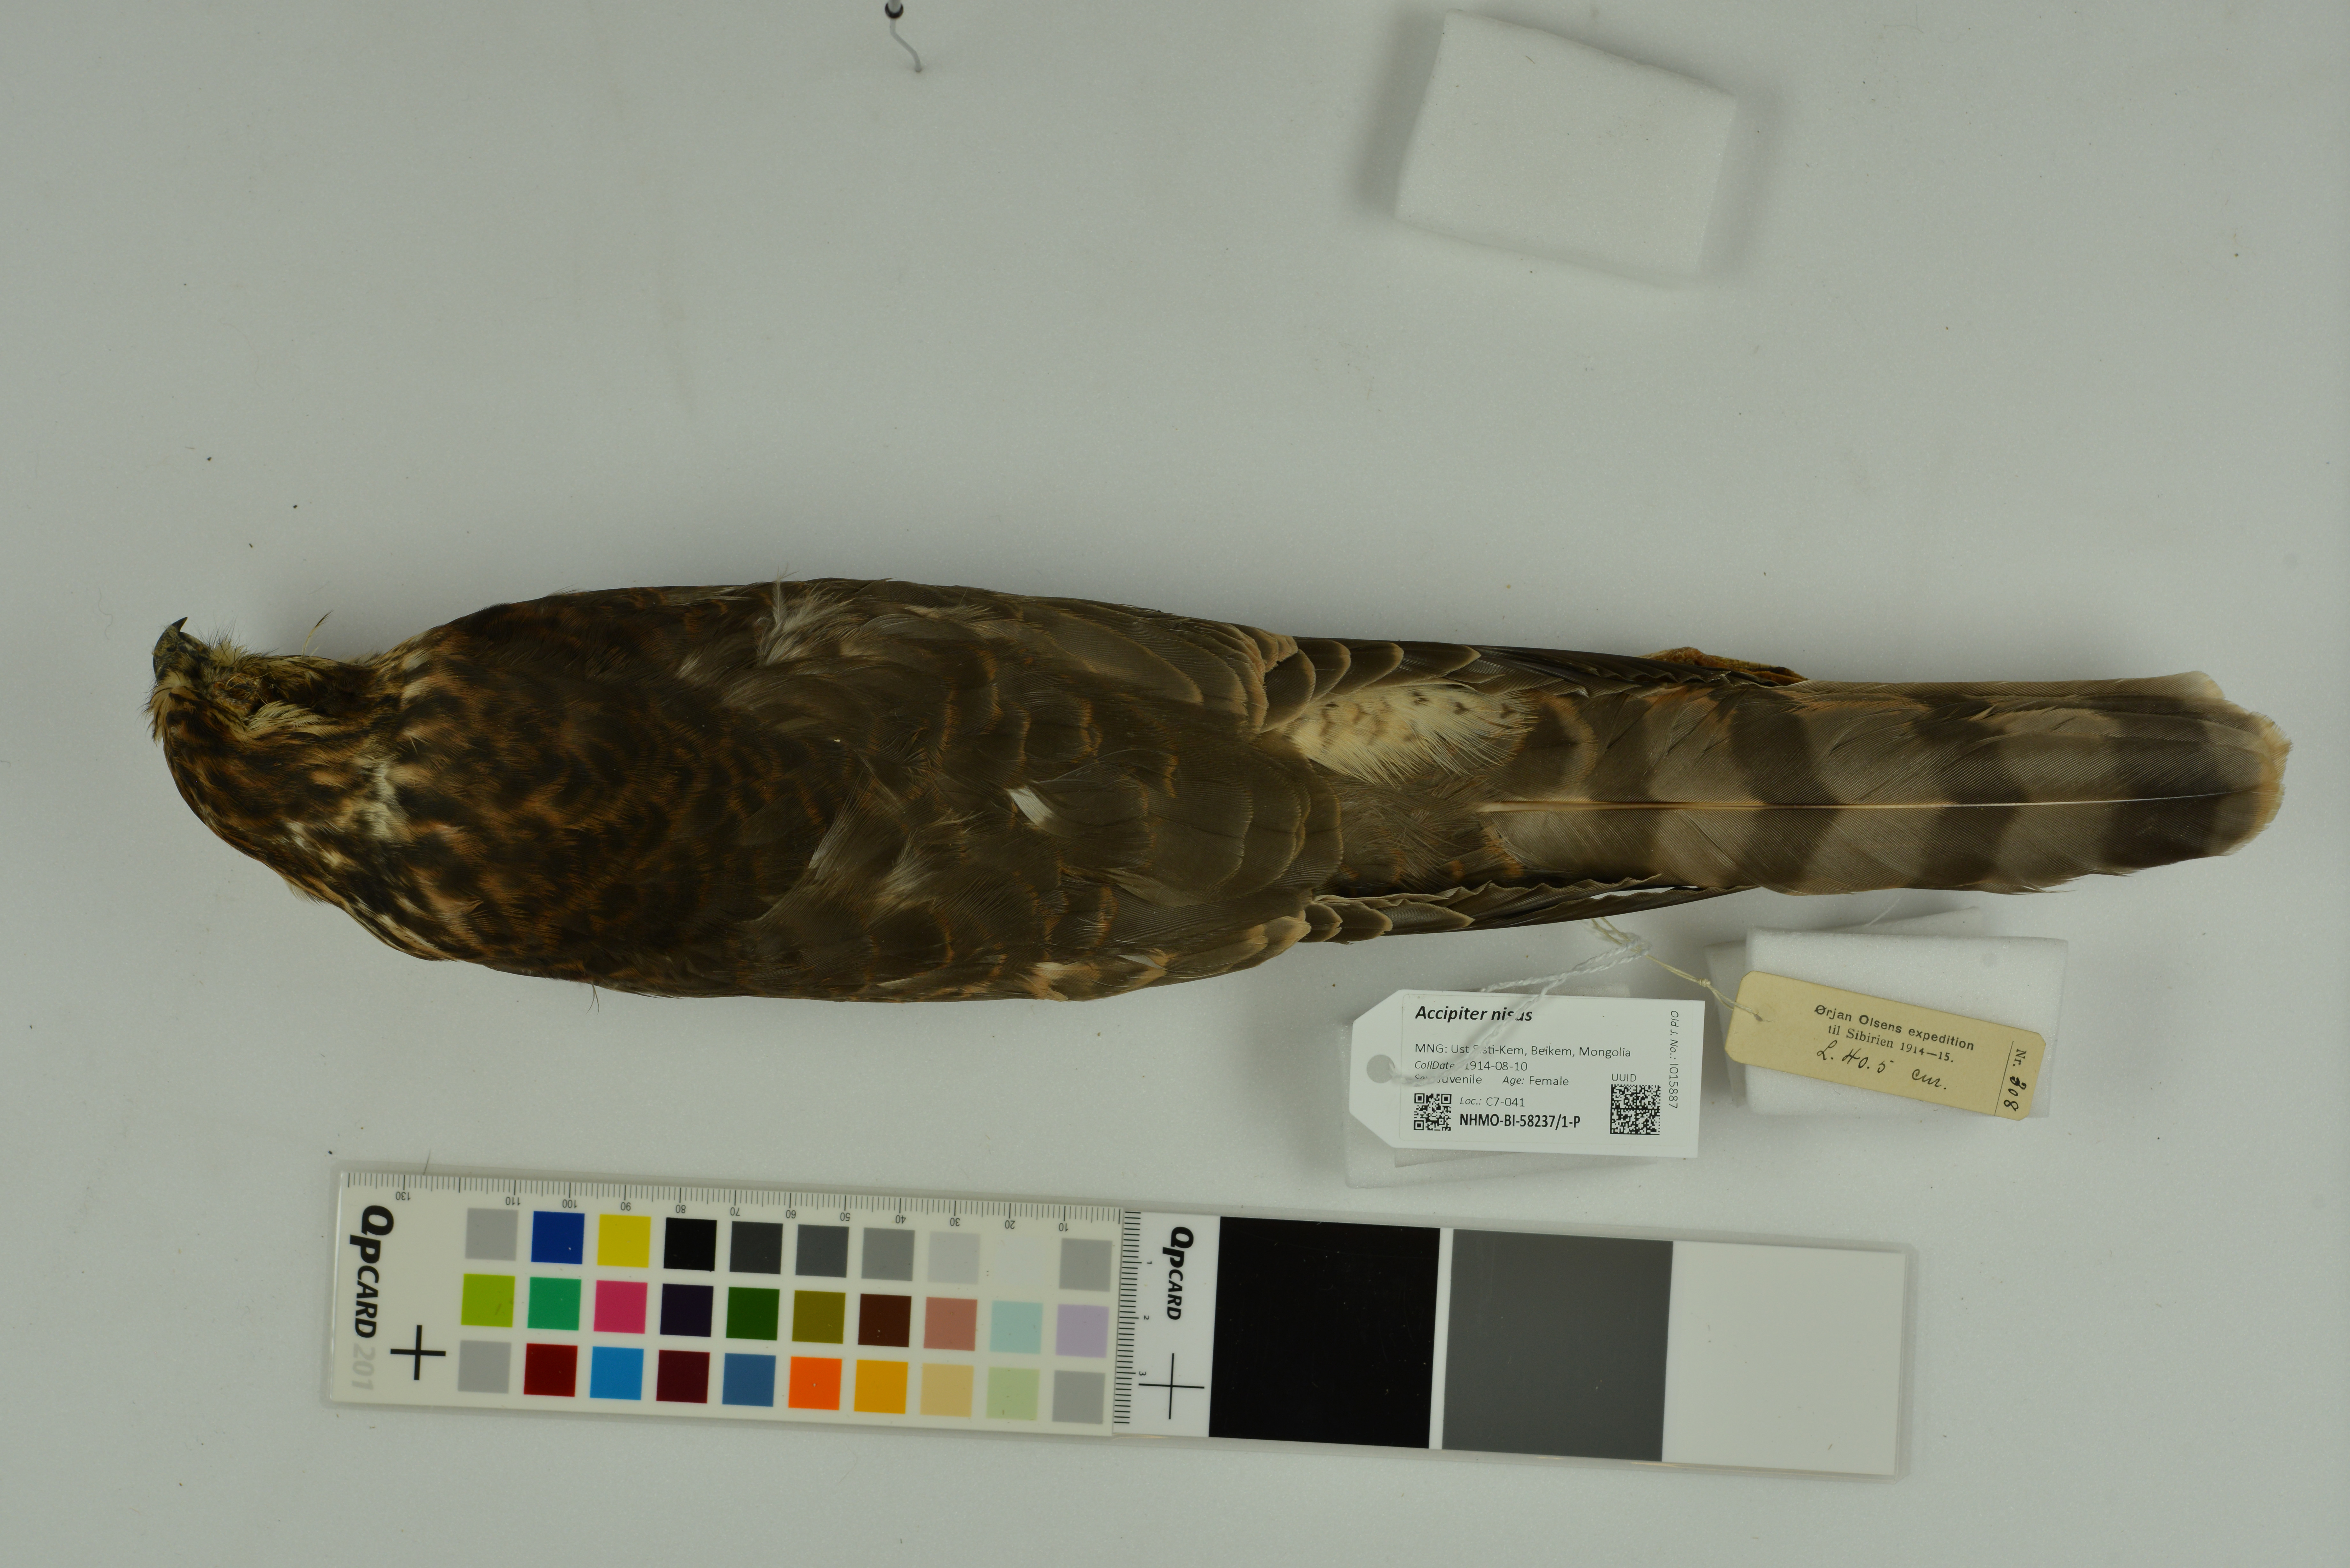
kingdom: Animalia
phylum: Chordata
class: Aves
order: Accipitriformes
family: Accipitridae
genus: Accipiter
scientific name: Accipiter nisus
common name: Eurasian sparrowhawk
